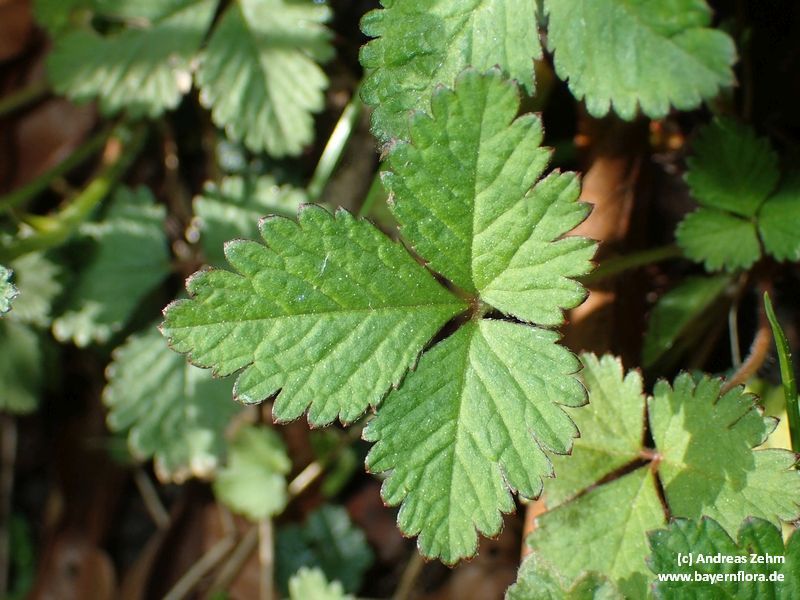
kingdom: Plantae
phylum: Tracheophyta
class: Magnoliopsida
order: Rosales
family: Rosaceae
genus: Potentilla
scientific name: Potentilla indica
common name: Yellow-flowered strawberry
